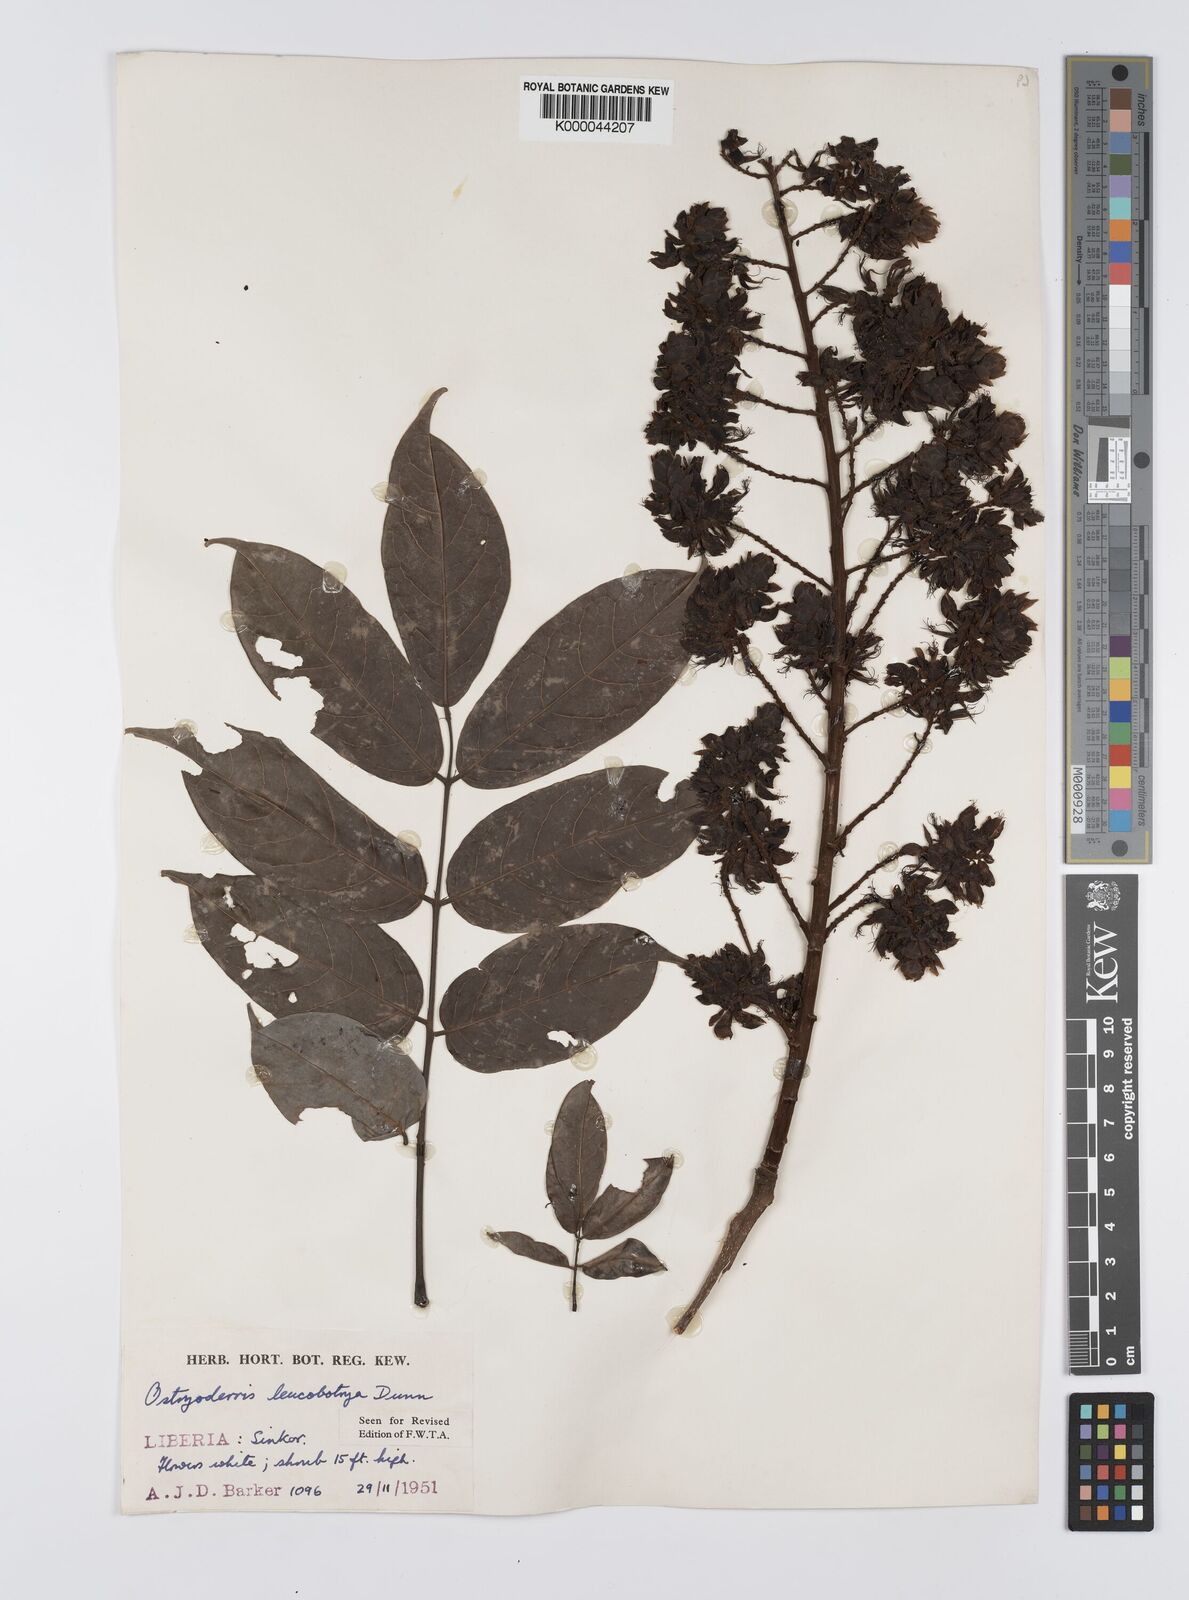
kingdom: Plantae
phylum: Tracheophyta
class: Magnoliopsida
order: Fabales
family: Fabaceae
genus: Aganope
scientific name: Aganope leucobotrya
